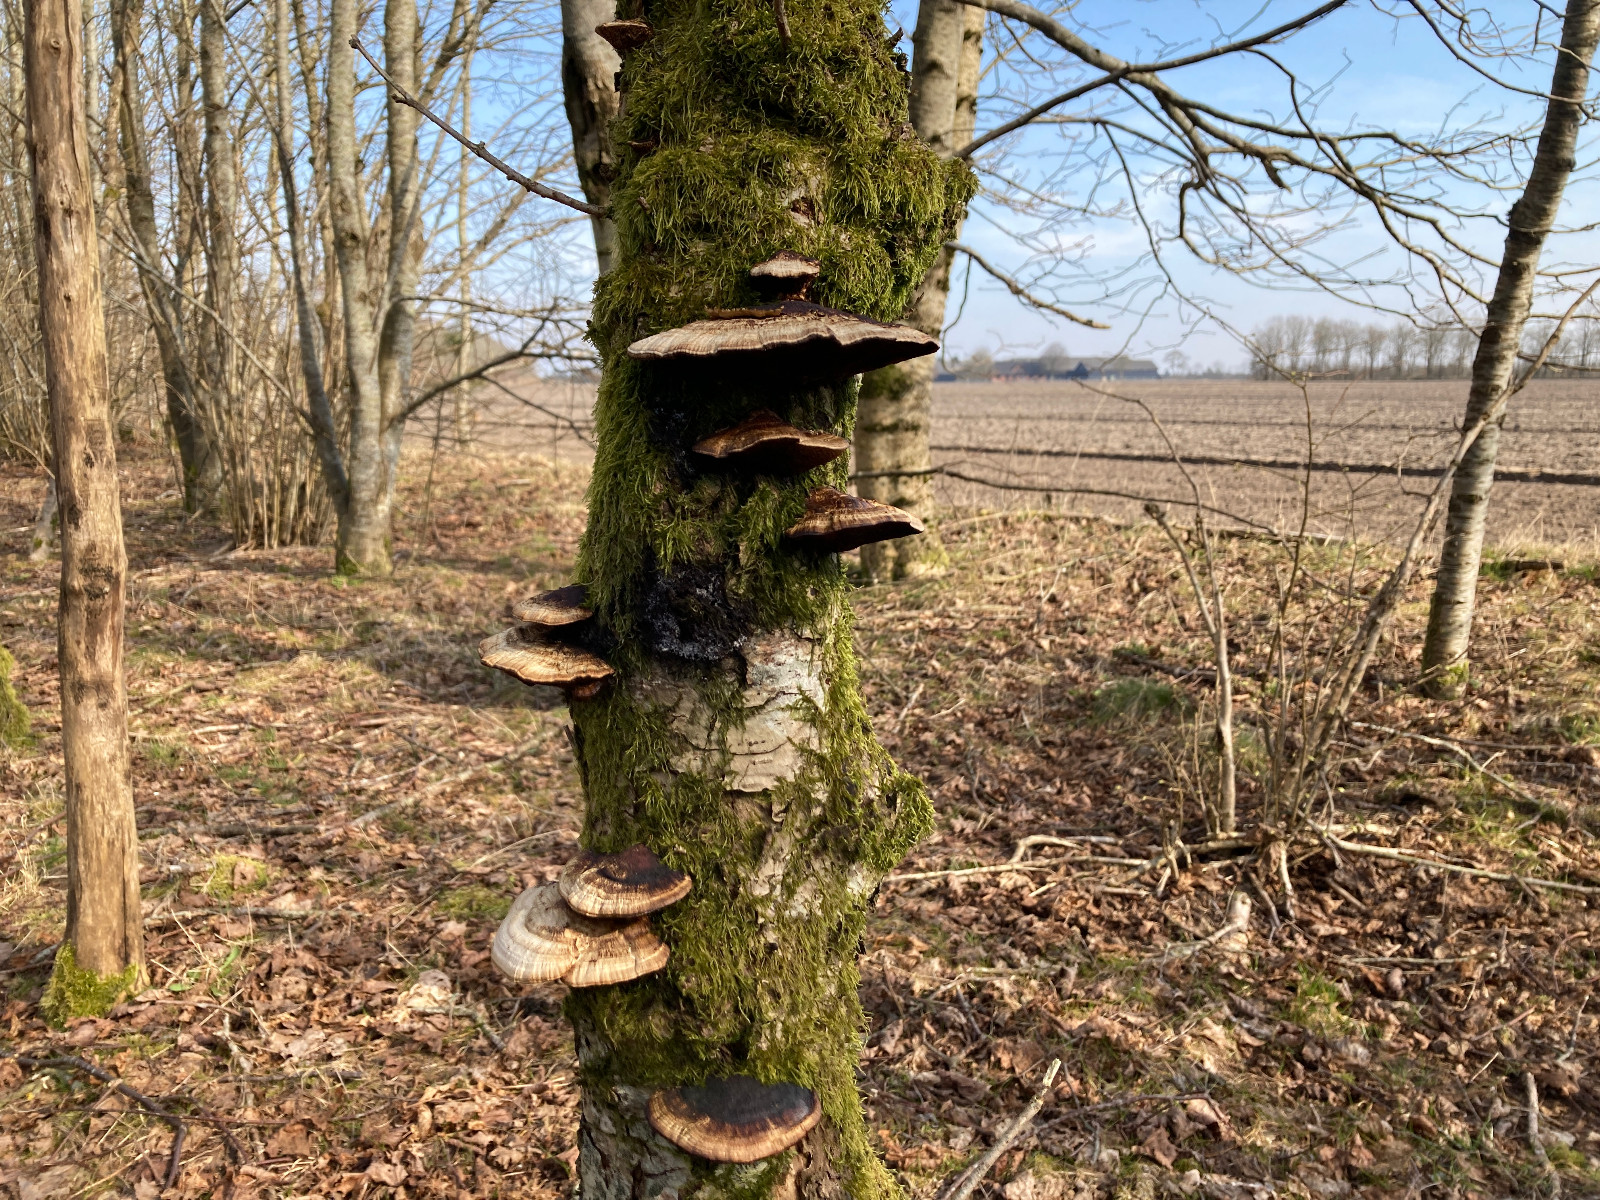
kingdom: Fungi
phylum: Basidiomycota
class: Agaricomycetes
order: Polyporales
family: Polyporaceae
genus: Daedaleopsis
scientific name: Daedaleopsis confragosa
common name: rødmende læderporesvamp
